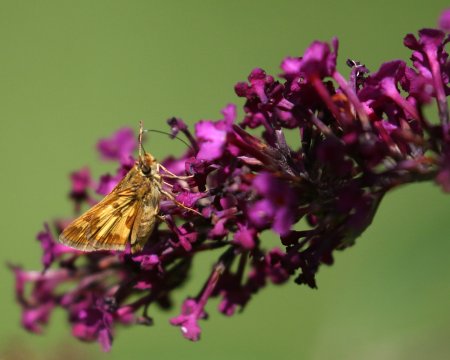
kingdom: Animalia
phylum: Arthropoda
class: Insecta
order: Lepidoptera
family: Hesperiidae
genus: Polites
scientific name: Polites coras
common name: Peck's Skipper
